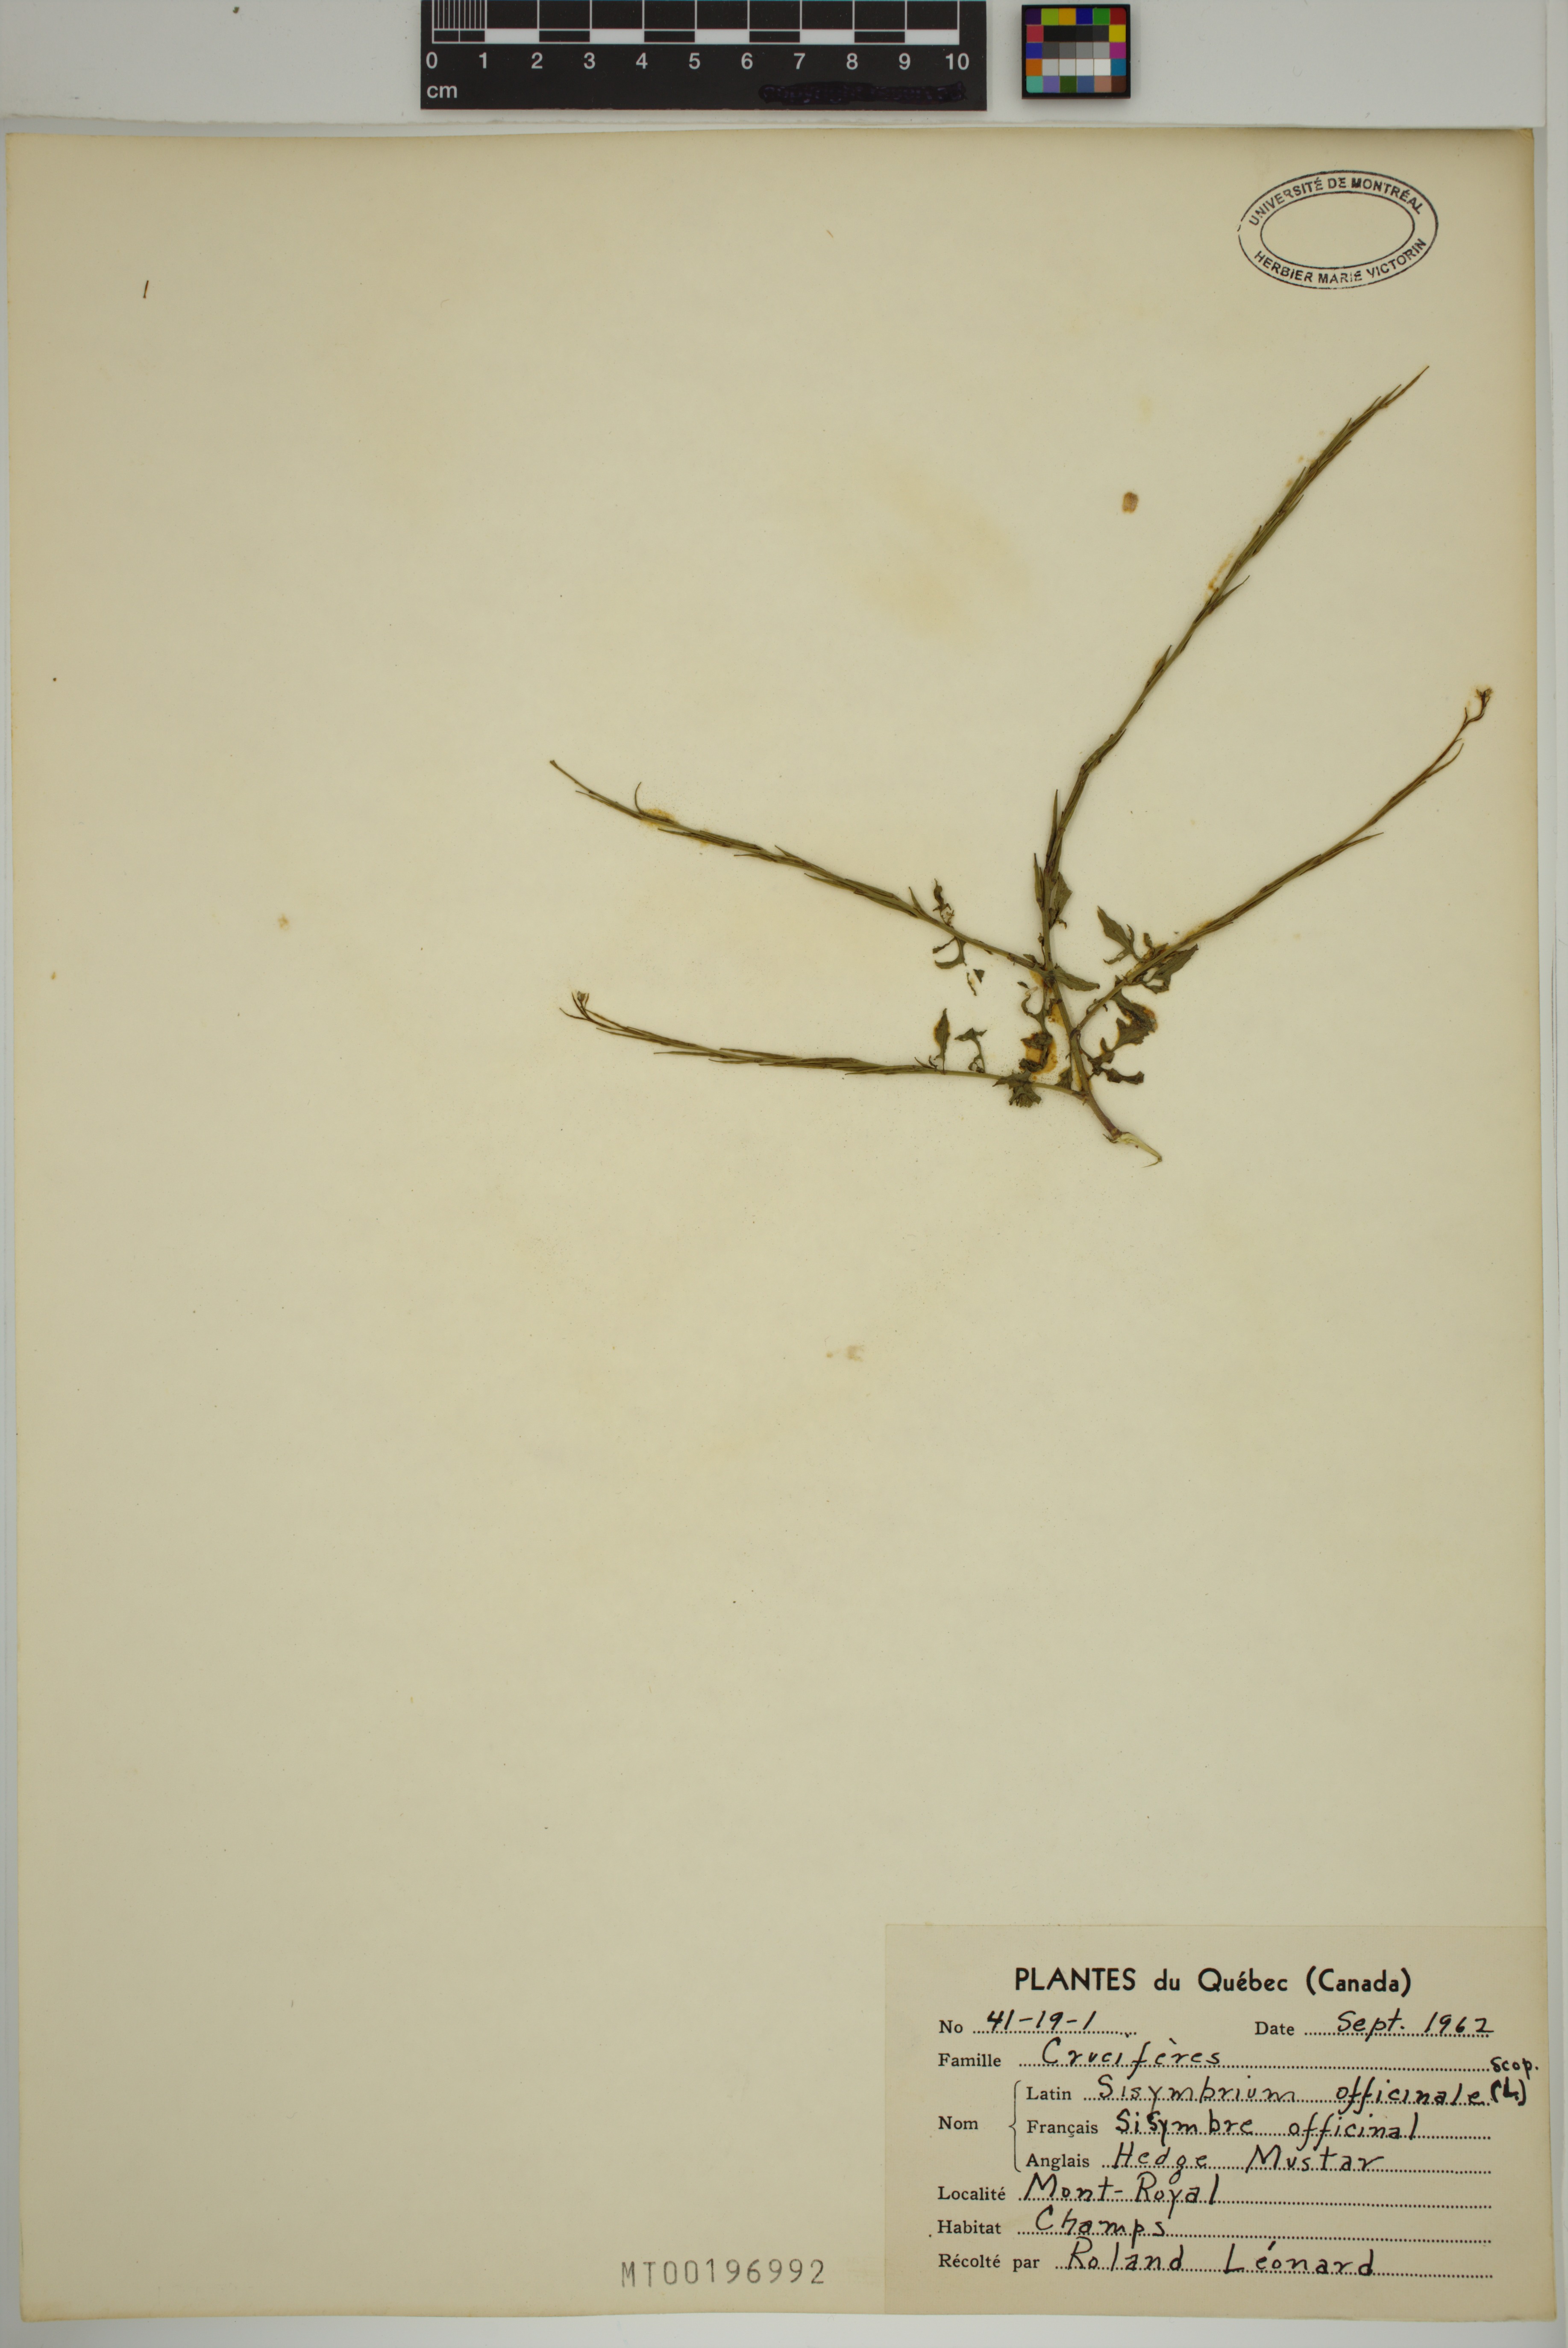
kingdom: Plantae
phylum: Tracheophyta
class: Magnoliopsida
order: Brassicales
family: Brassicaceae
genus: Sisymbrium
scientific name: Sisymbrium officinale
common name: Hedge mustard
